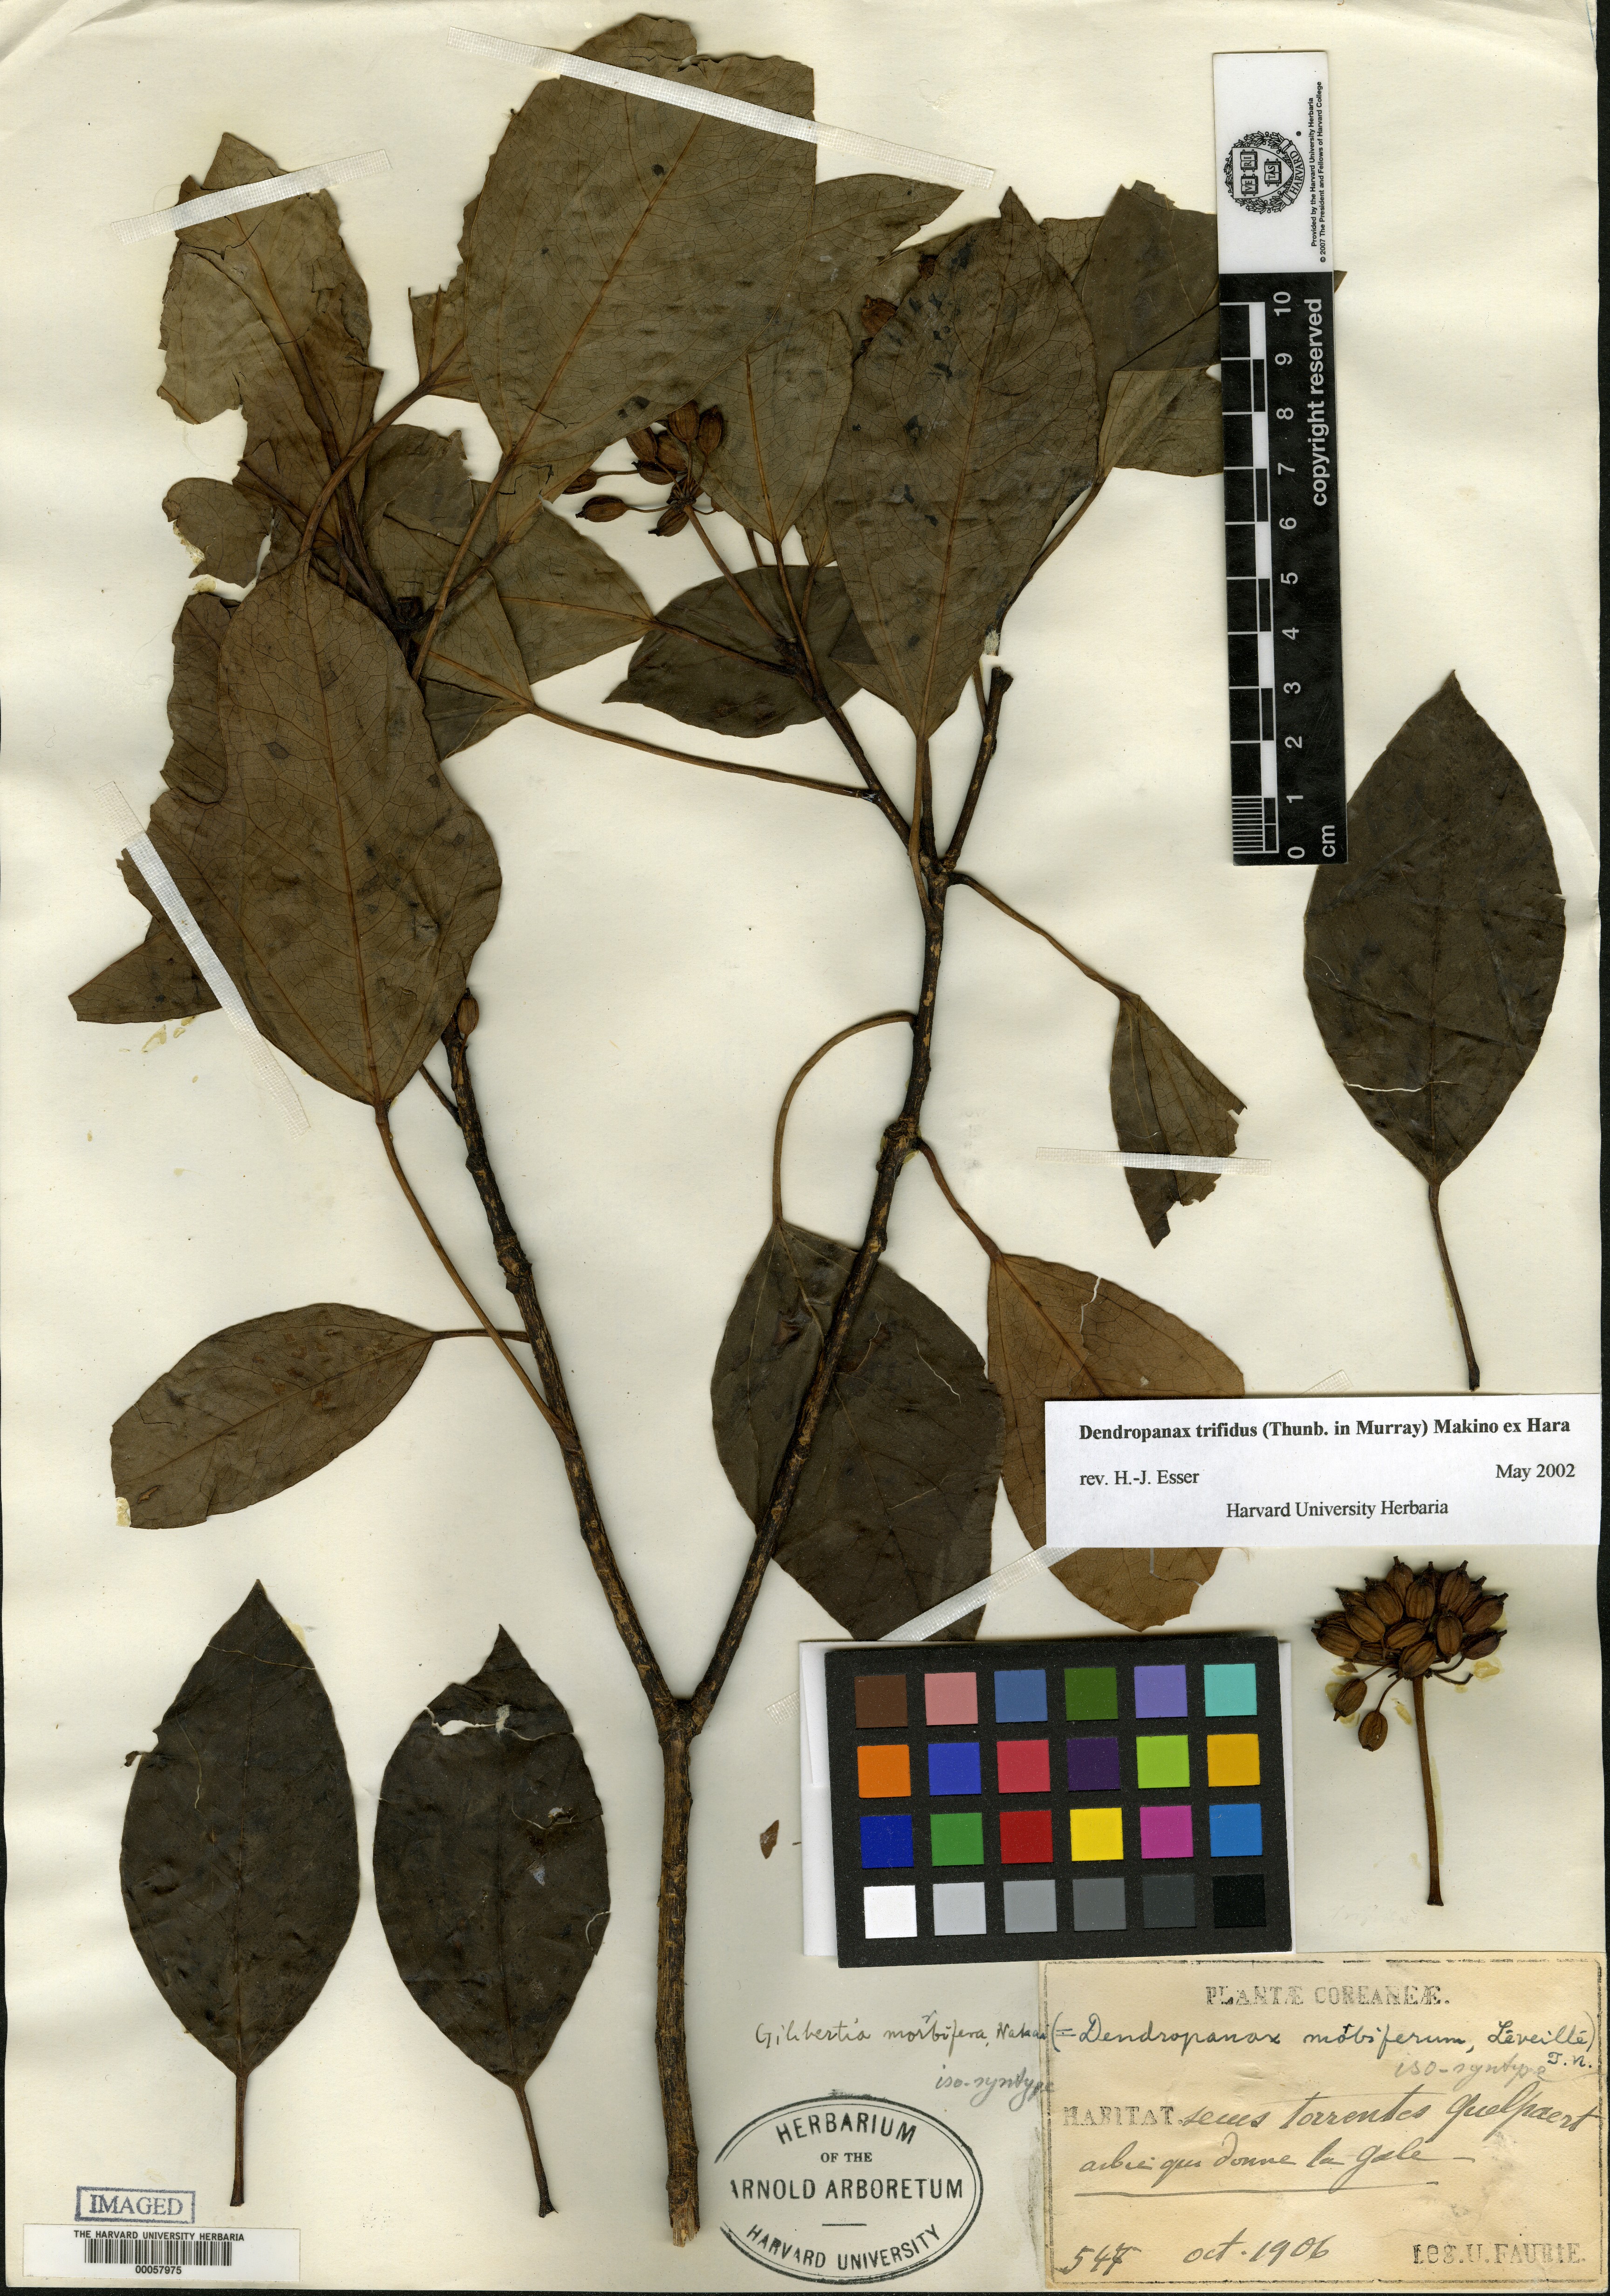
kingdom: Plantae
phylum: Tracheophyta
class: Magnoliopsida
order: Apiales
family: Araliaceae
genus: Dendropanax
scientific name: Dendropanax trifidus
